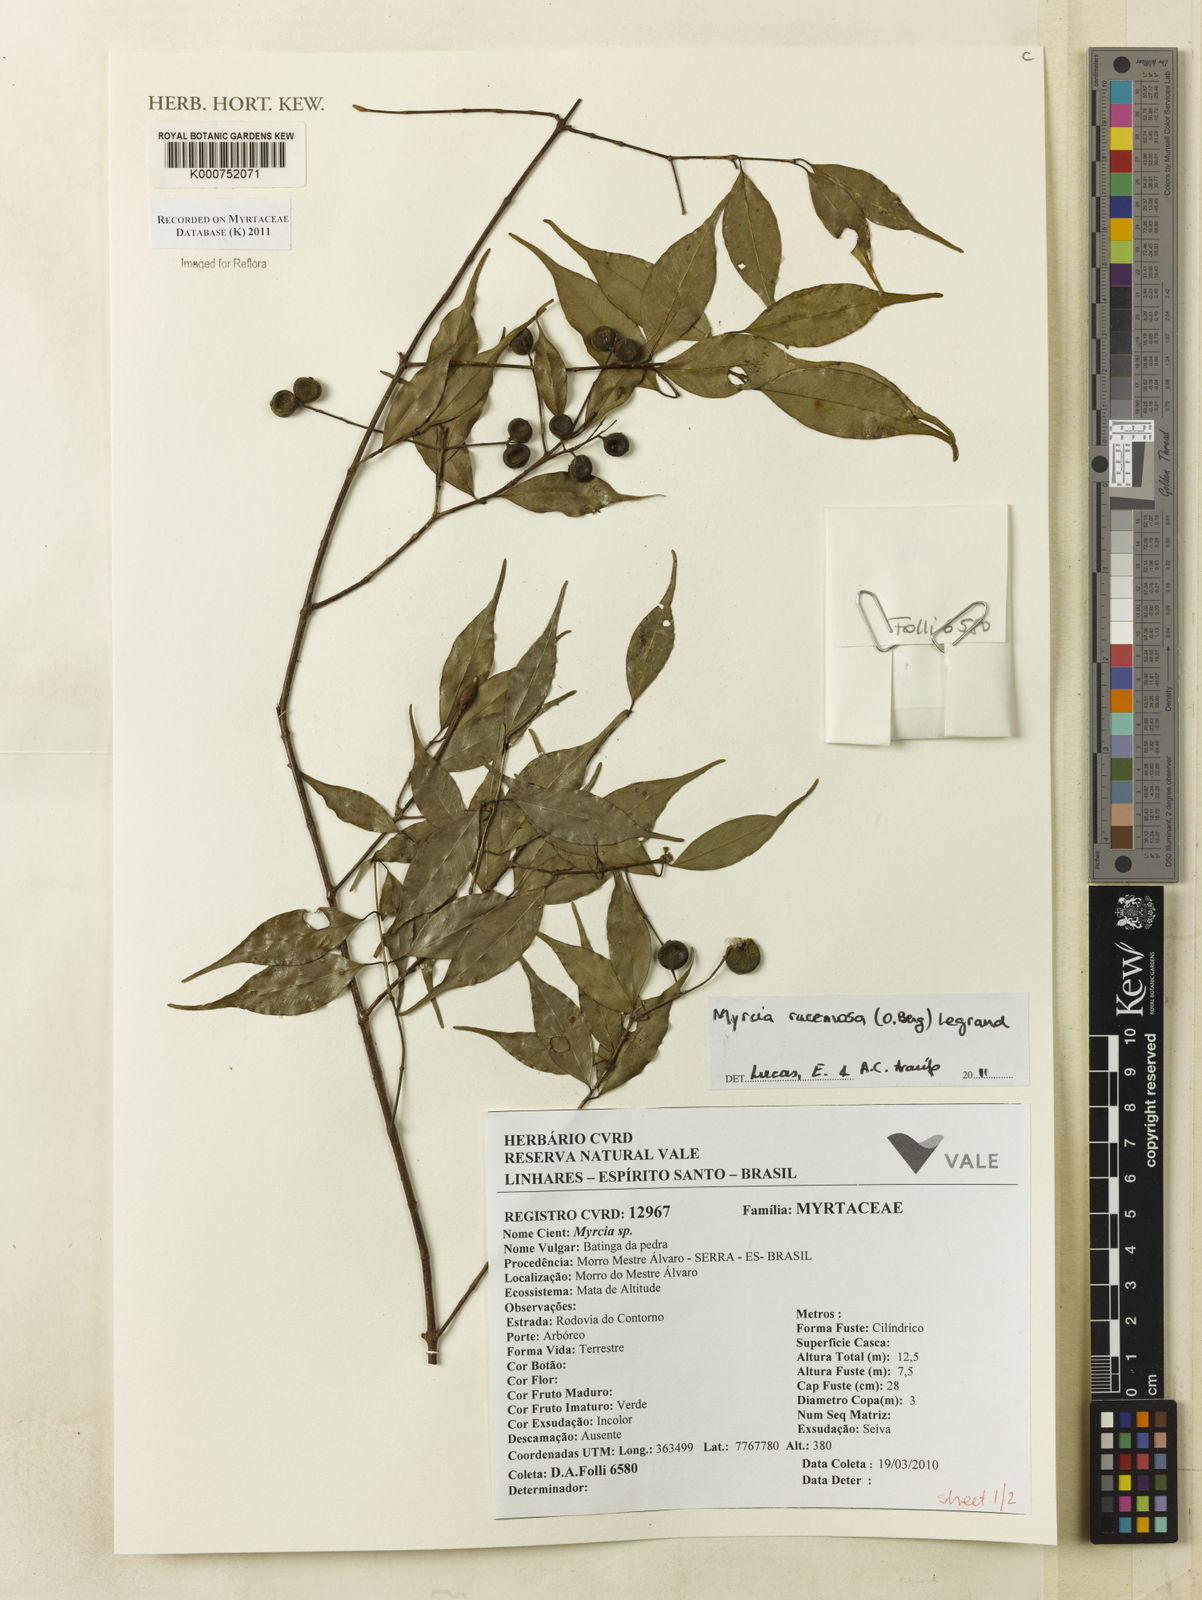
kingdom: Plantae
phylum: Tracheophyta
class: Magnoliopsida
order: Myrtales
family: Myrtaceae
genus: Myrcia
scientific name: Myrcia
